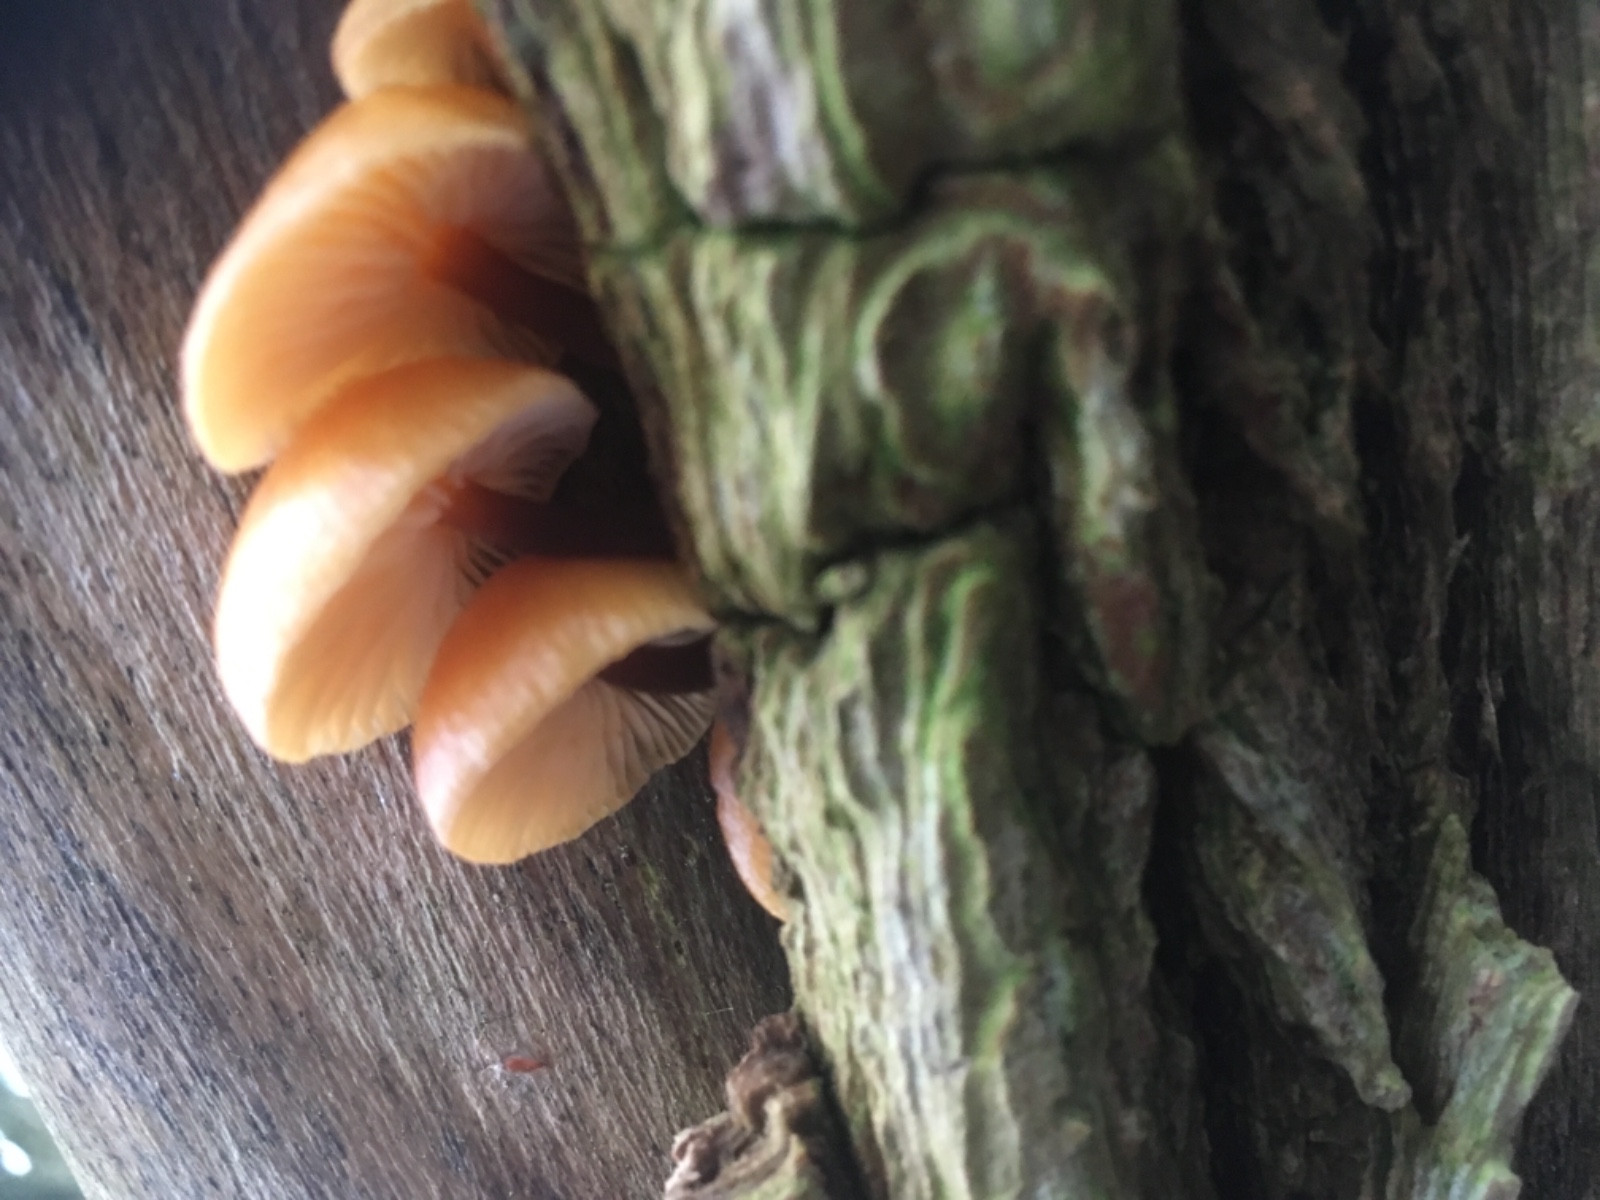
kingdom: Fungi
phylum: Basidiomycota
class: Agaricomycetes
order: Agaricales
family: Physalacriaceae
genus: Flammulina
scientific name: Flammulina
